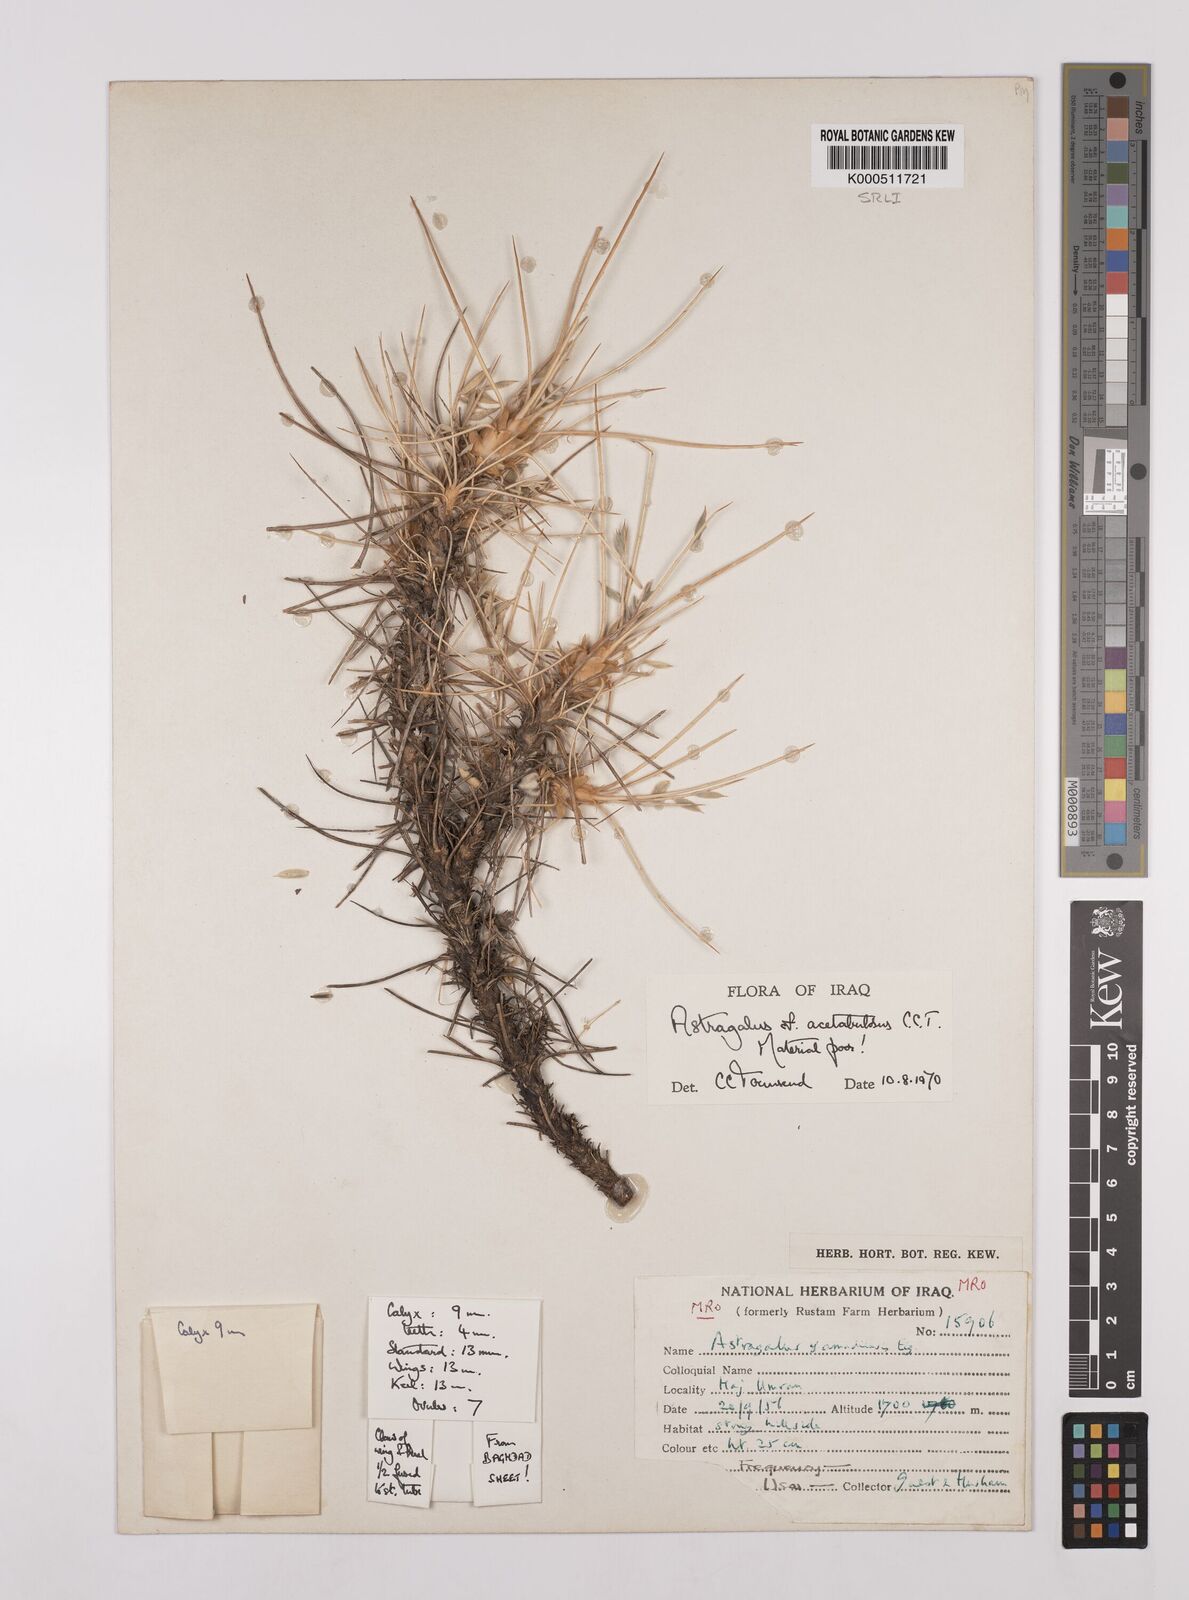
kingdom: Plantae
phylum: Tracheophyta
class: Magnoliopsida
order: Fabales
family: Fabaceae
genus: Astragalus
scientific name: Astragalus acetabulosus
